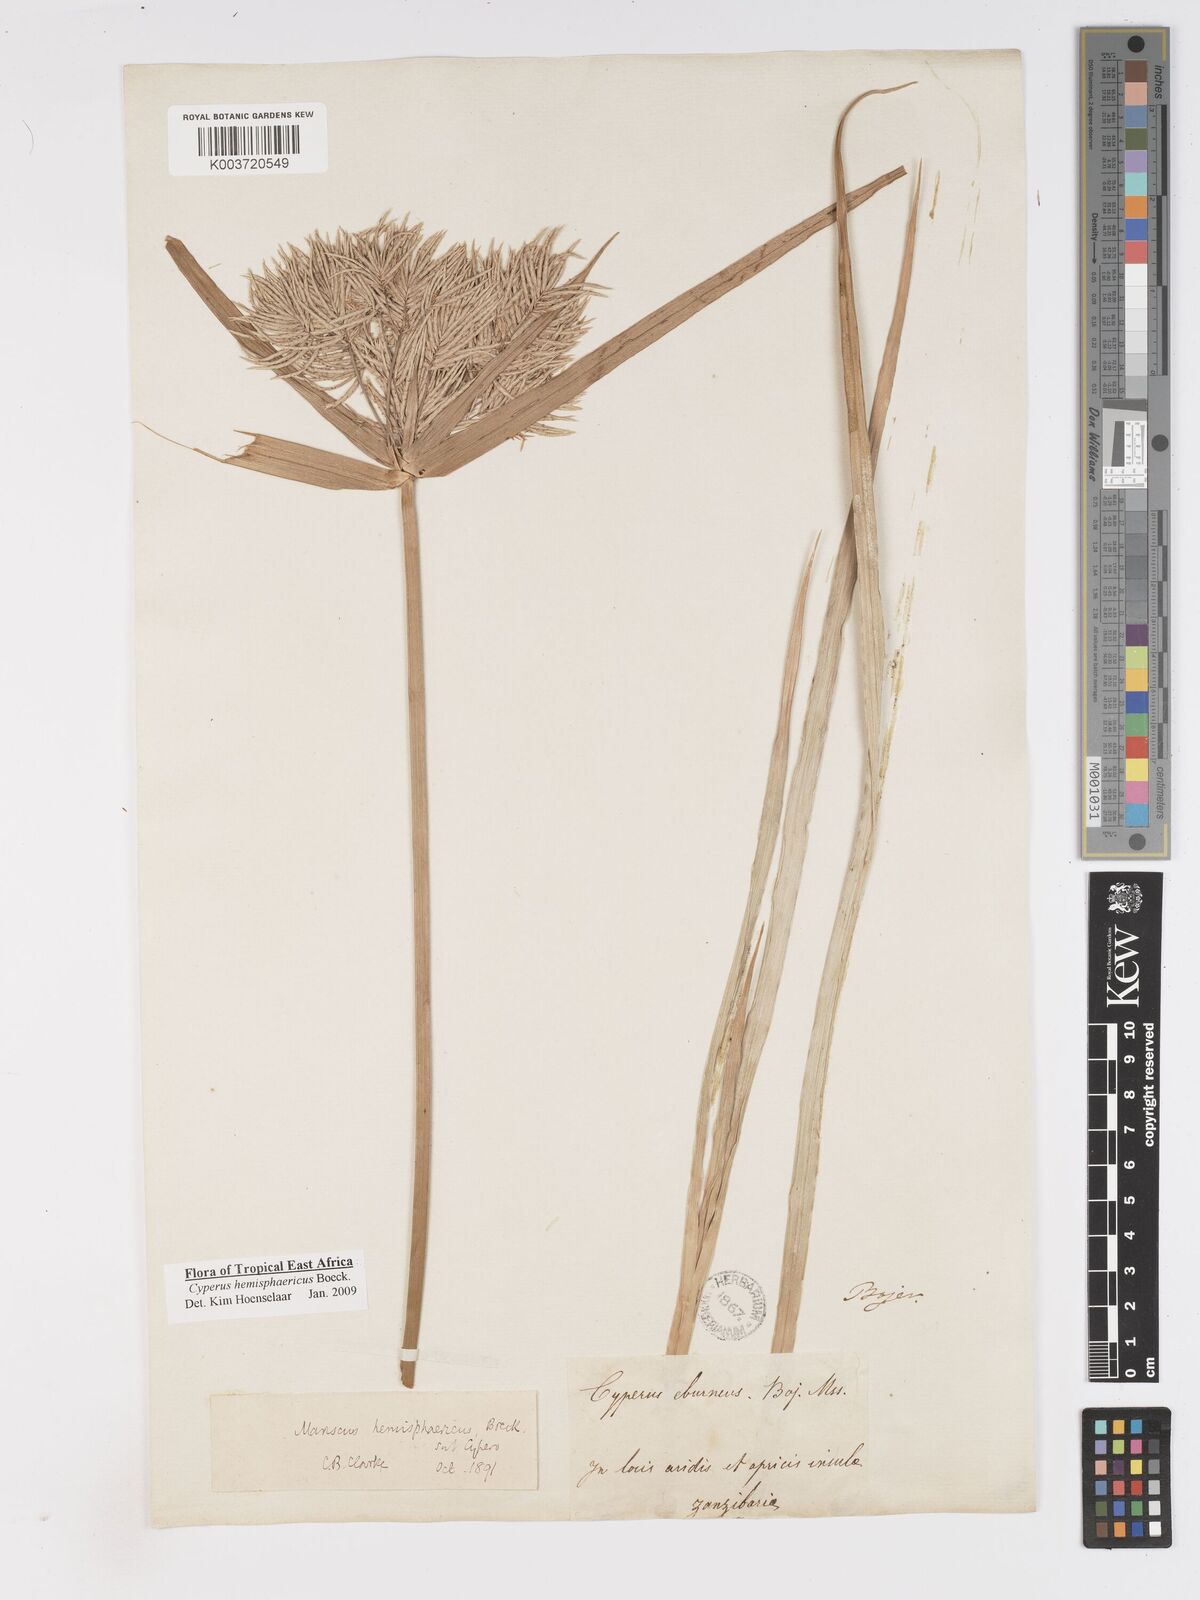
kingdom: Plantae
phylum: Tracheophyta
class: Liliopsida
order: Poales
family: Cyperaceae
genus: Cyperus
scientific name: Cyperus hemisphaericus
